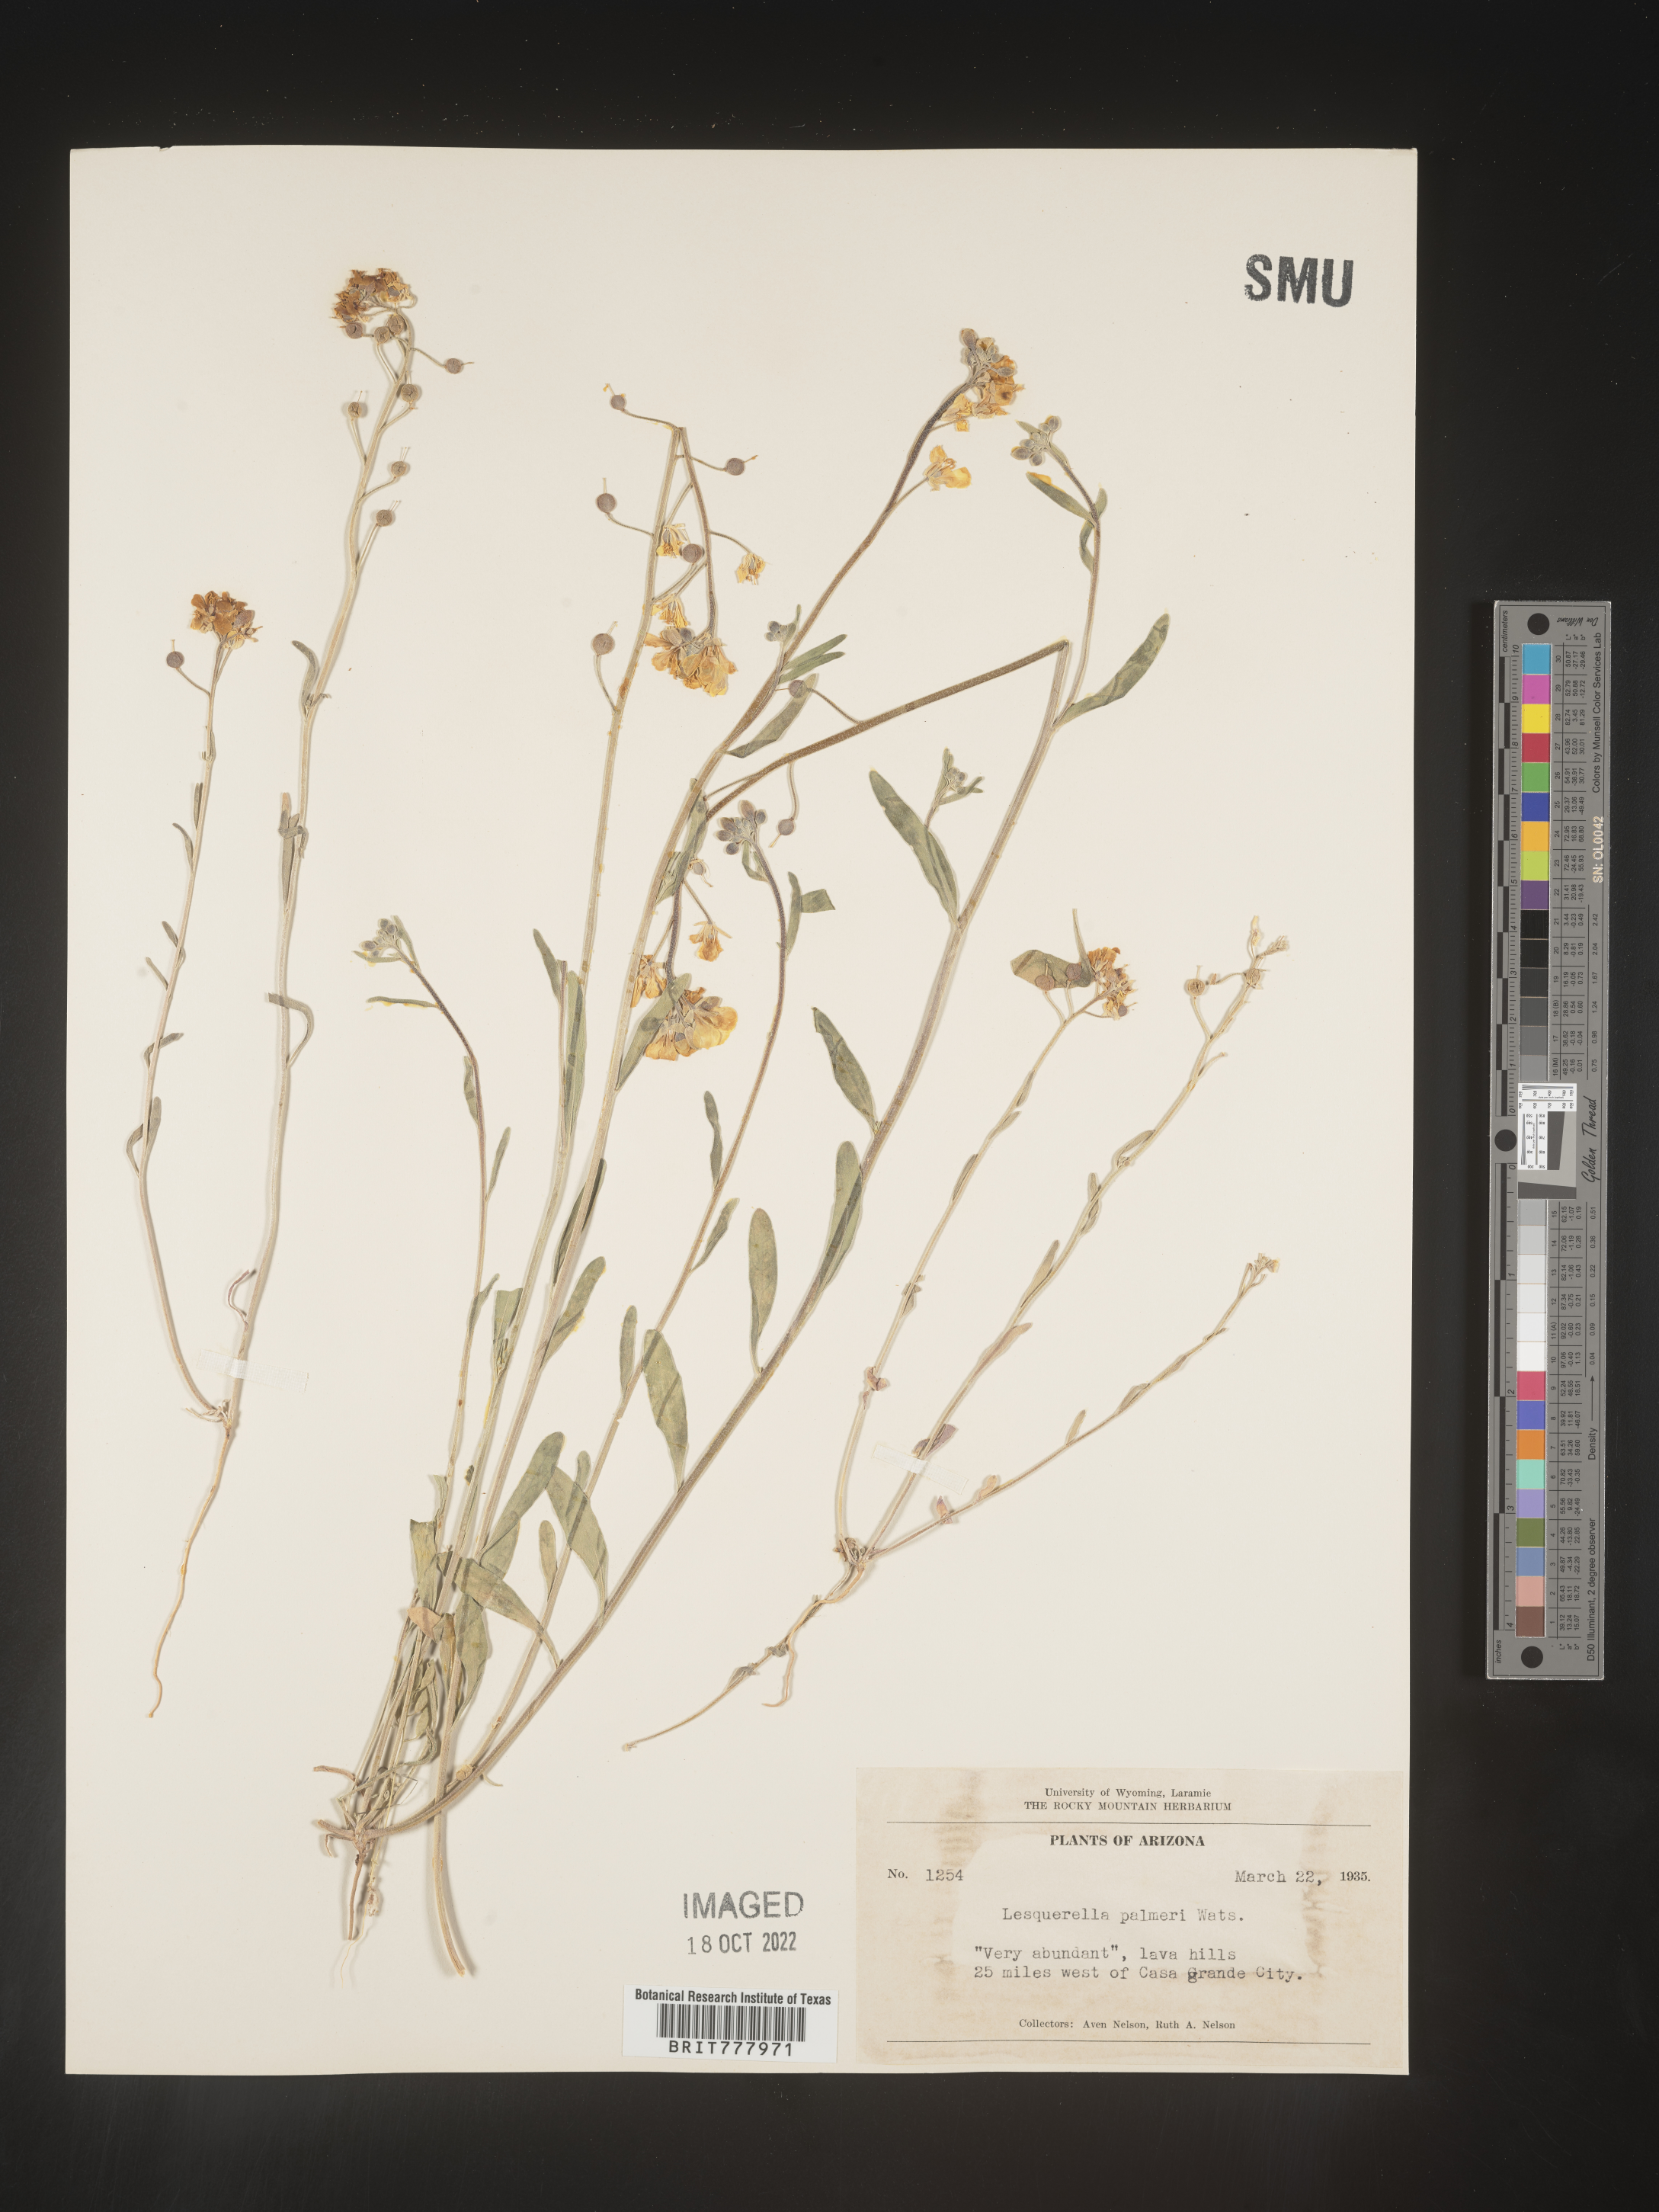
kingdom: Chromista
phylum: Cercozoa
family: Psammonobiotidae
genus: Lesquerella
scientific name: Lesquerella
